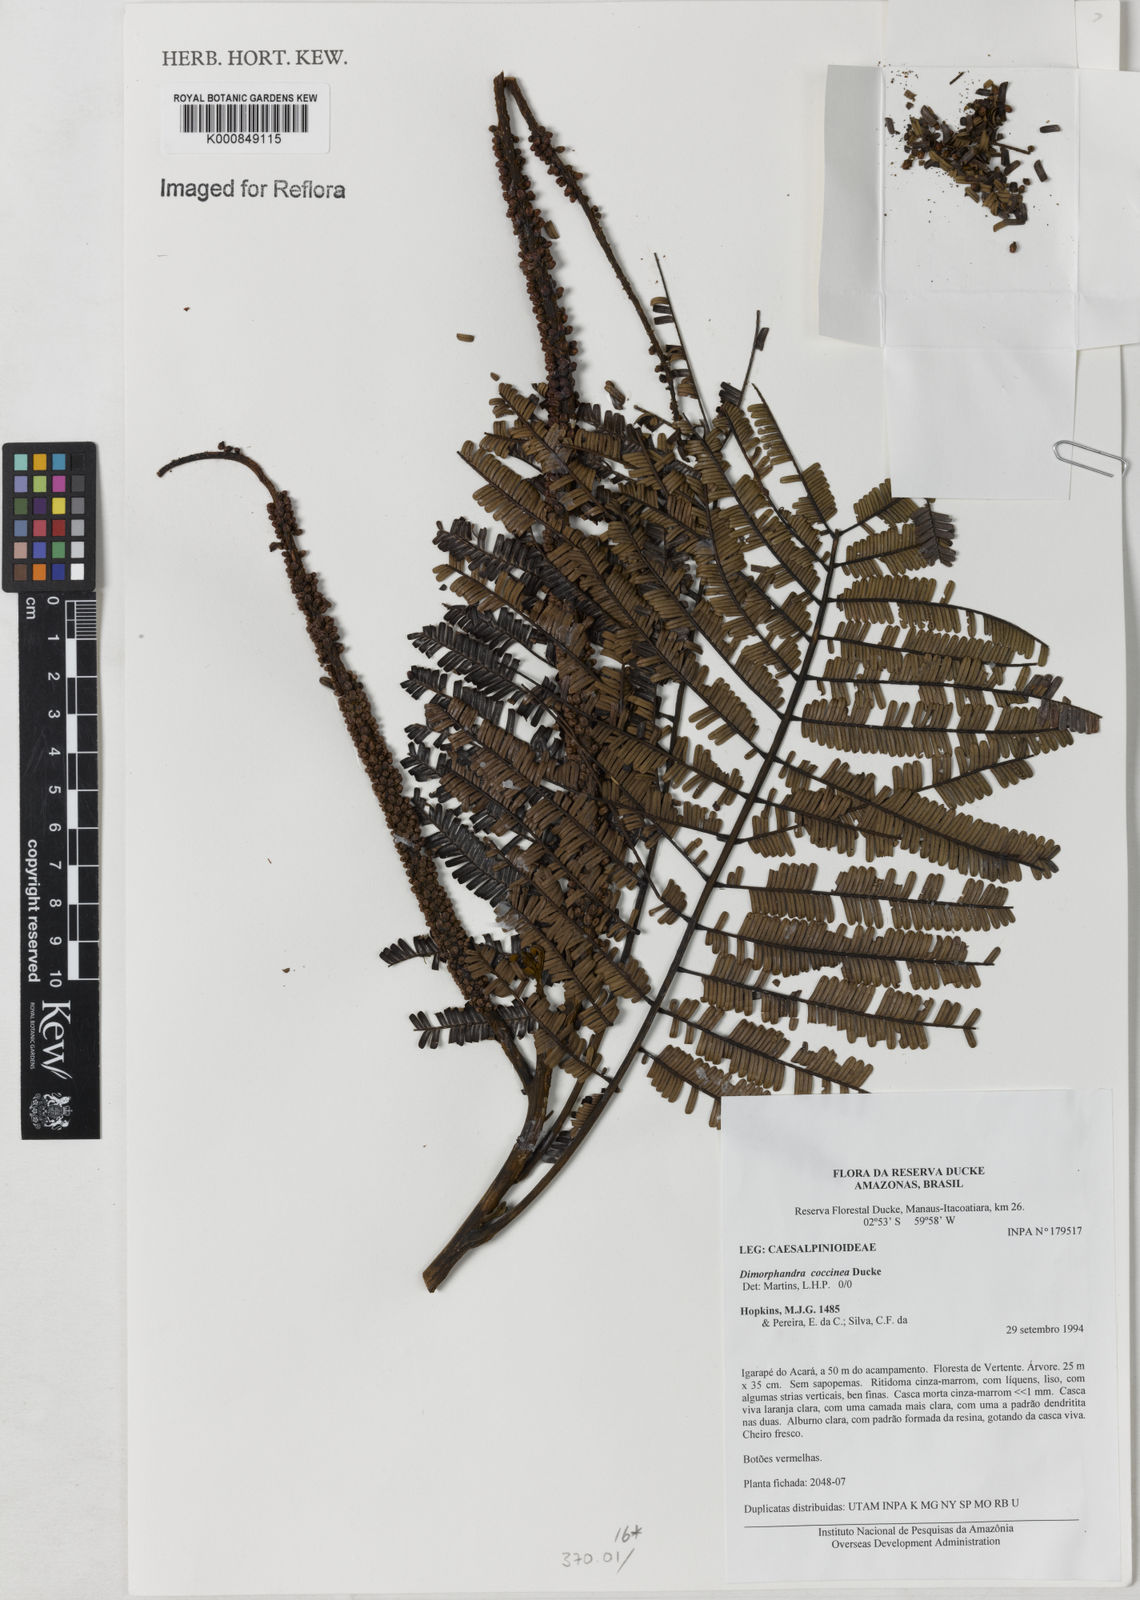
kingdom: Plantae
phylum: Tracheophyta
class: Magnoliopsida
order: Fabales
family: Fabaceae
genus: Dimorphandra
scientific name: Dimorphandra coccinea
